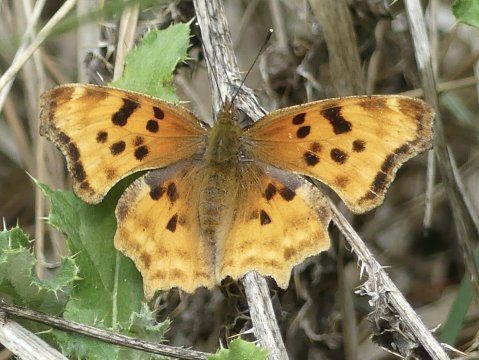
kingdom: Animalia
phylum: Arthropoda
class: Insecta
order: Lepidoptera
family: Nymphalidae
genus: Polygonia
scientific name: Polygonia satyrus
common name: Satyr Comma
